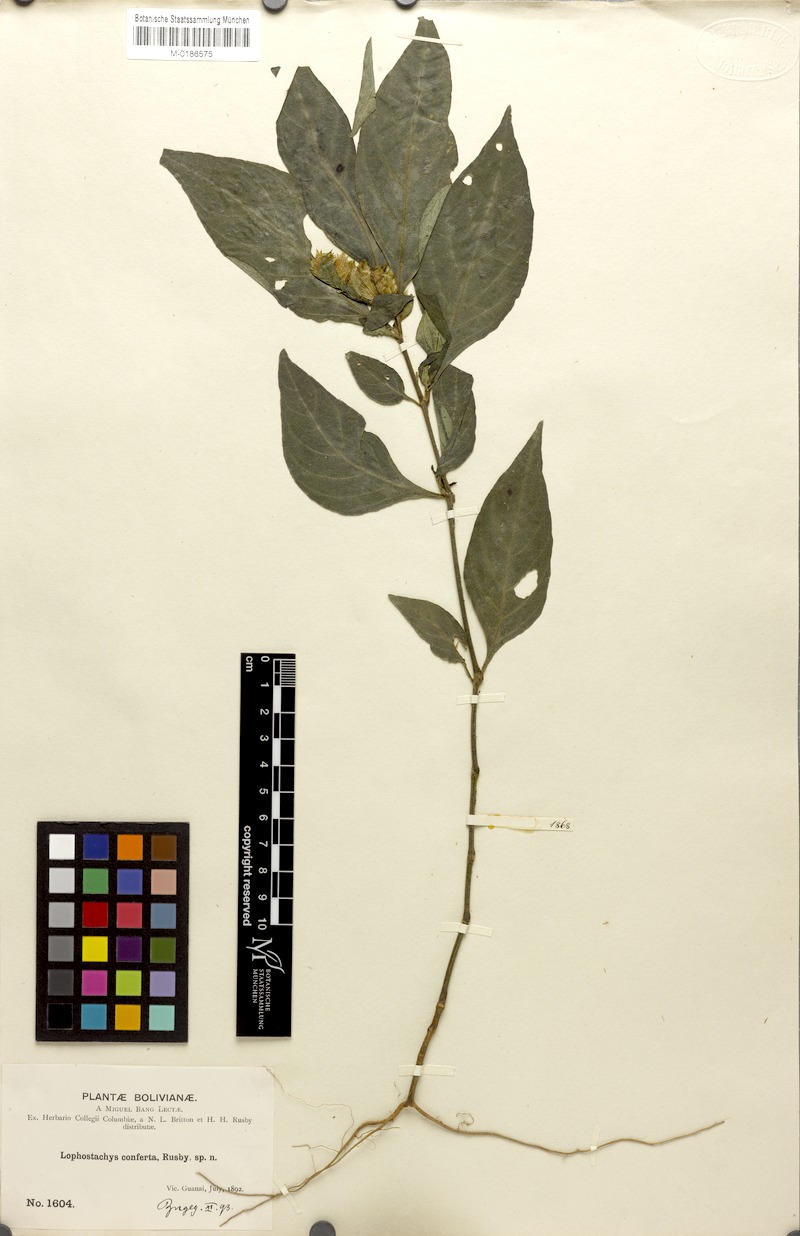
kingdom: Plantae
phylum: Tracheophyta
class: Magnoliopsida
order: Lamiales
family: Acanthaceae
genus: Lepidagathis
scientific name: Lepidagathis alverezia
